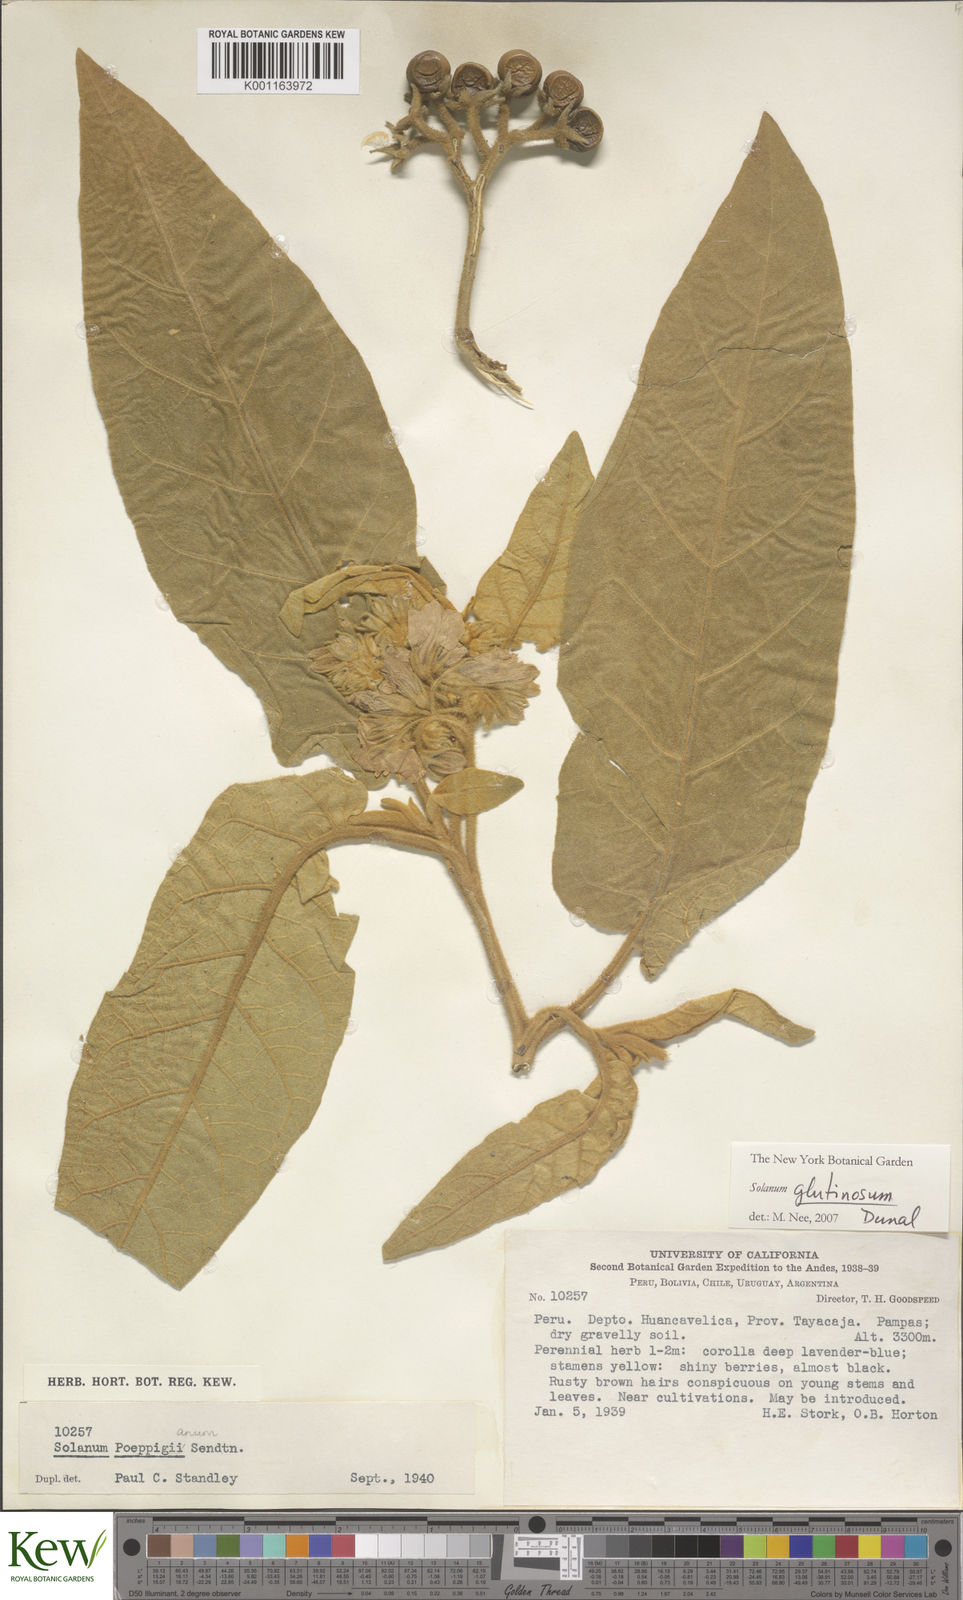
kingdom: Plantae
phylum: Tracheophyta
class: Magnoliopsida
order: Solanales
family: Solanaceae
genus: Solanum
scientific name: Solanum glutinosum
